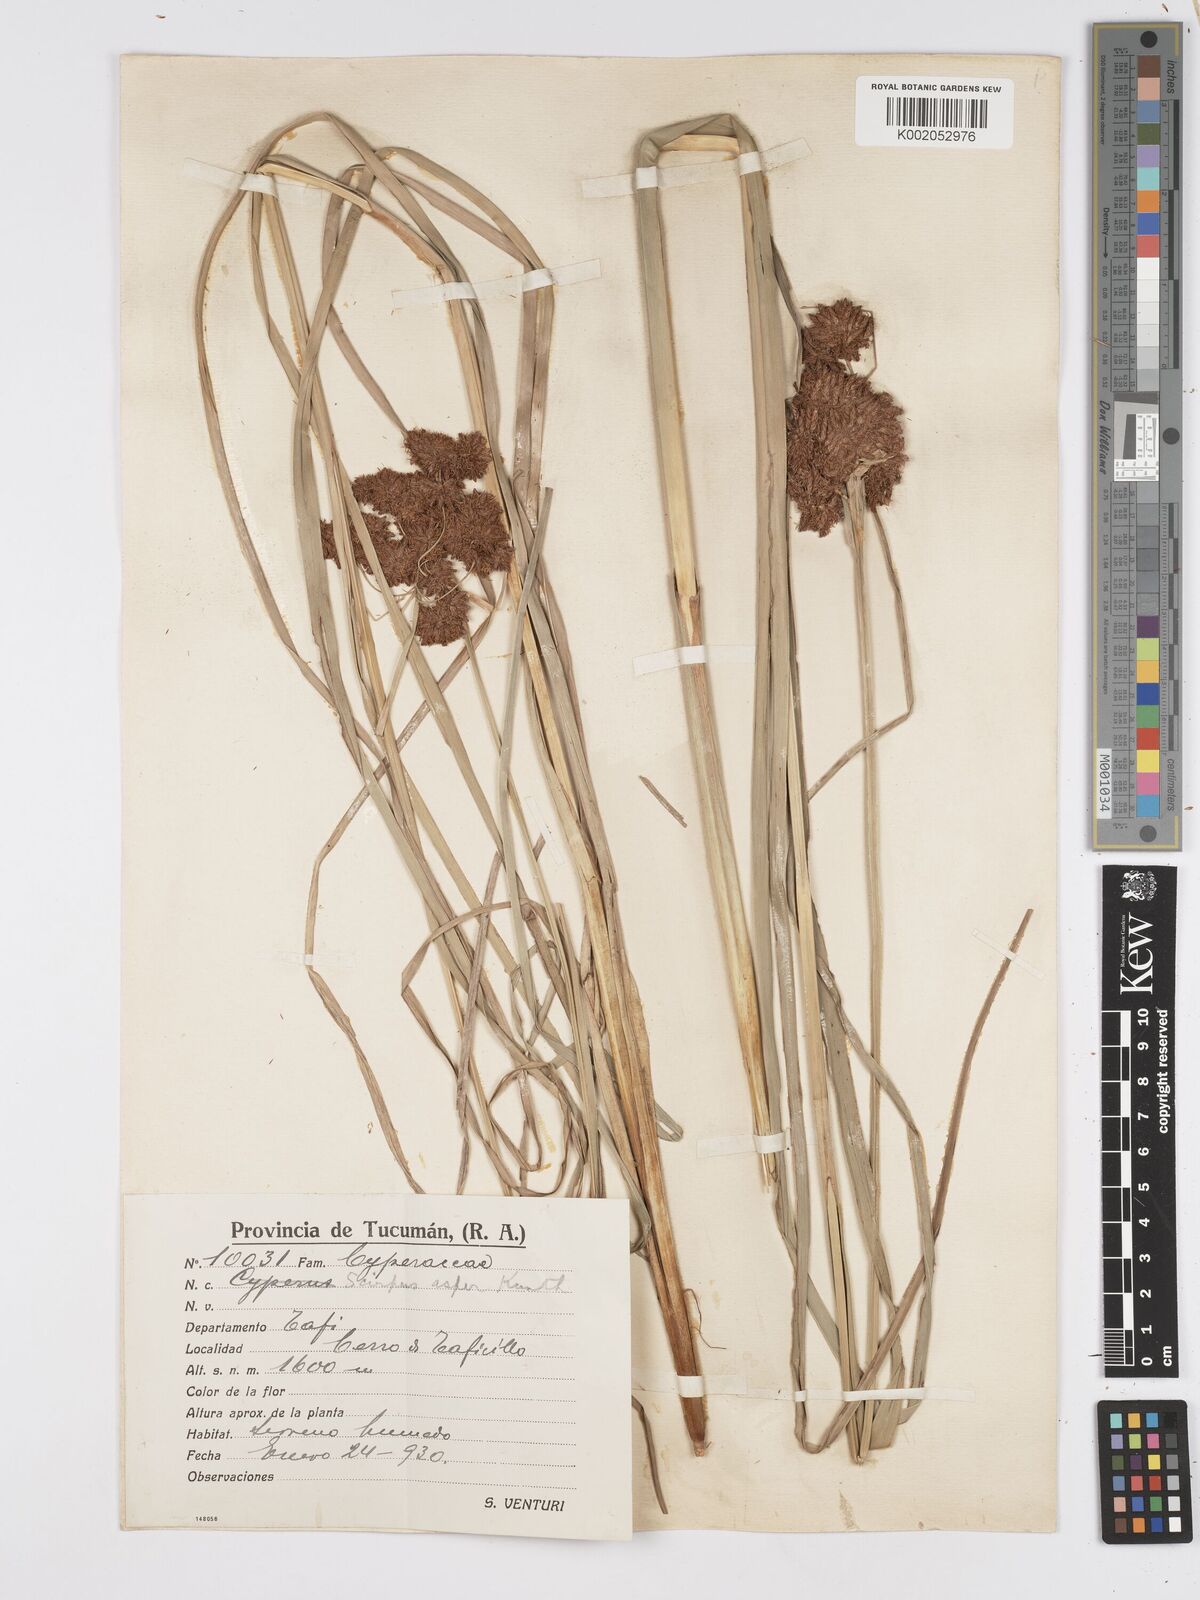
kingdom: Plantae
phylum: Tracheophyta
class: Liliopsida
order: Poales
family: Cyperaceae
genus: Rhodoscirpus
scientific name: Rhodoscirpus asper
